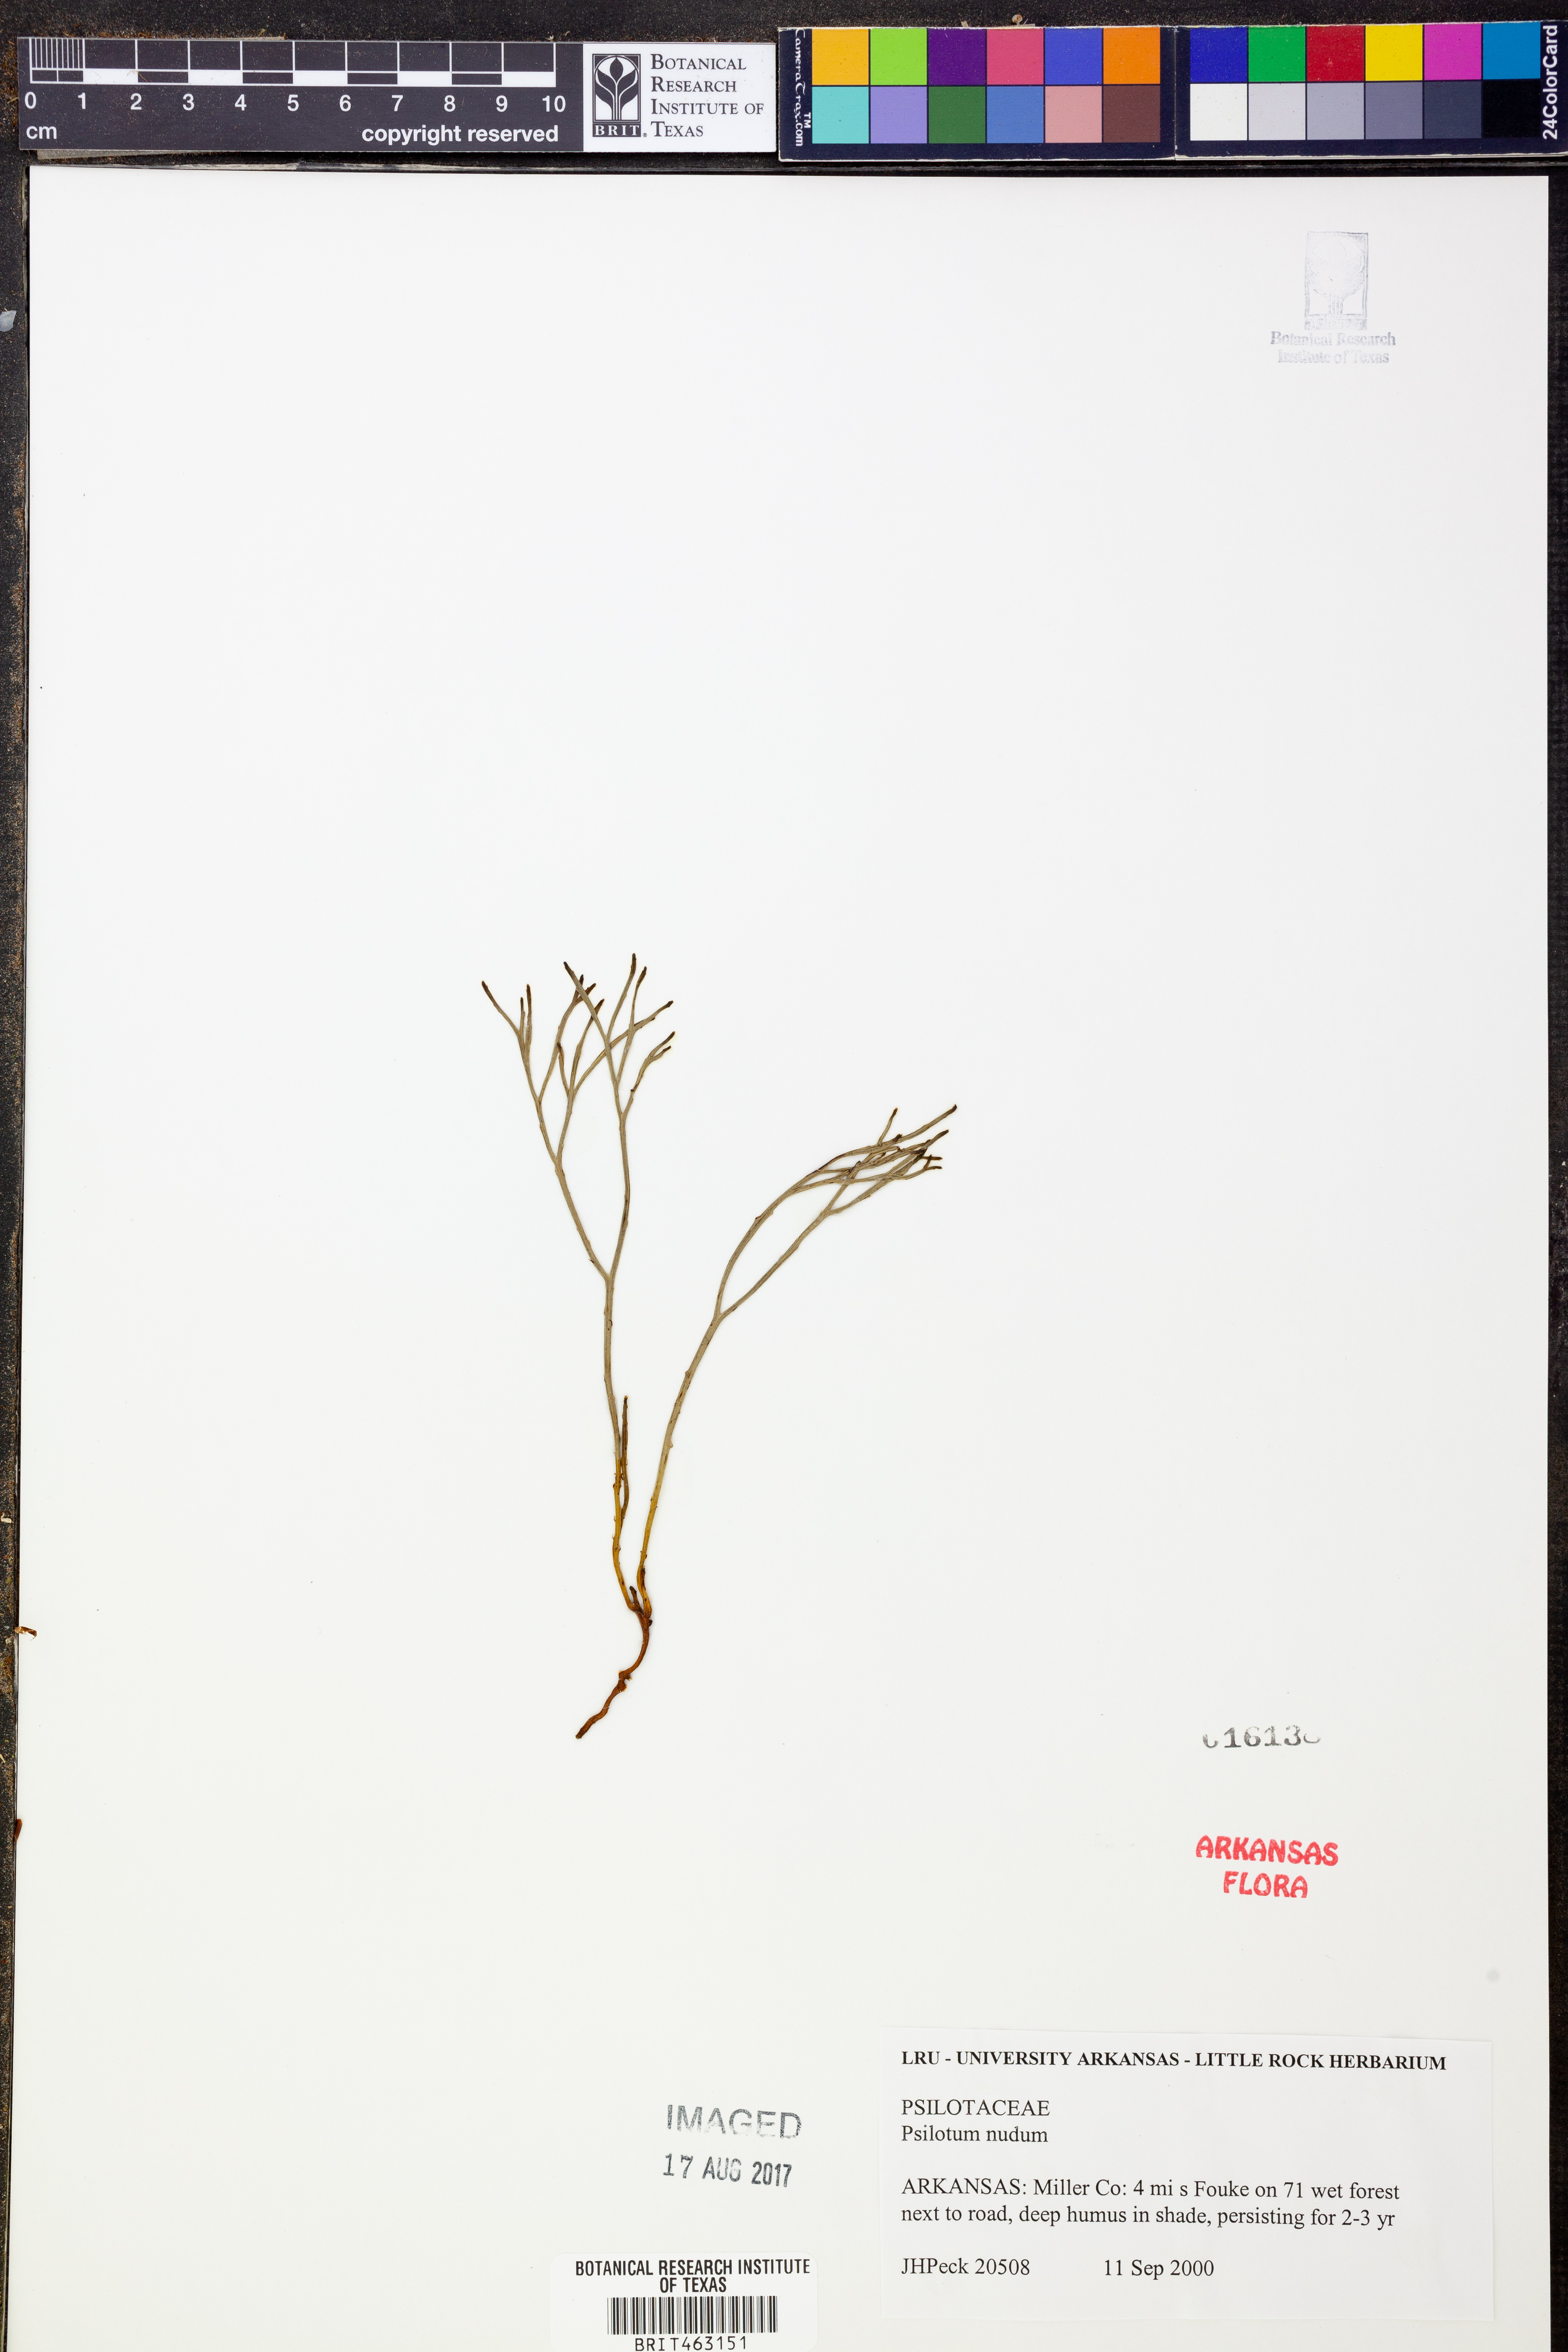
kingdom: Plantae
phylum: Tracheophyta
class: Polypodiopsida
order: Psilotales
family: Psilotaceae
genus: Psilotum
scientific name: Psilotum nudum
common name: Skeleton fork fern
